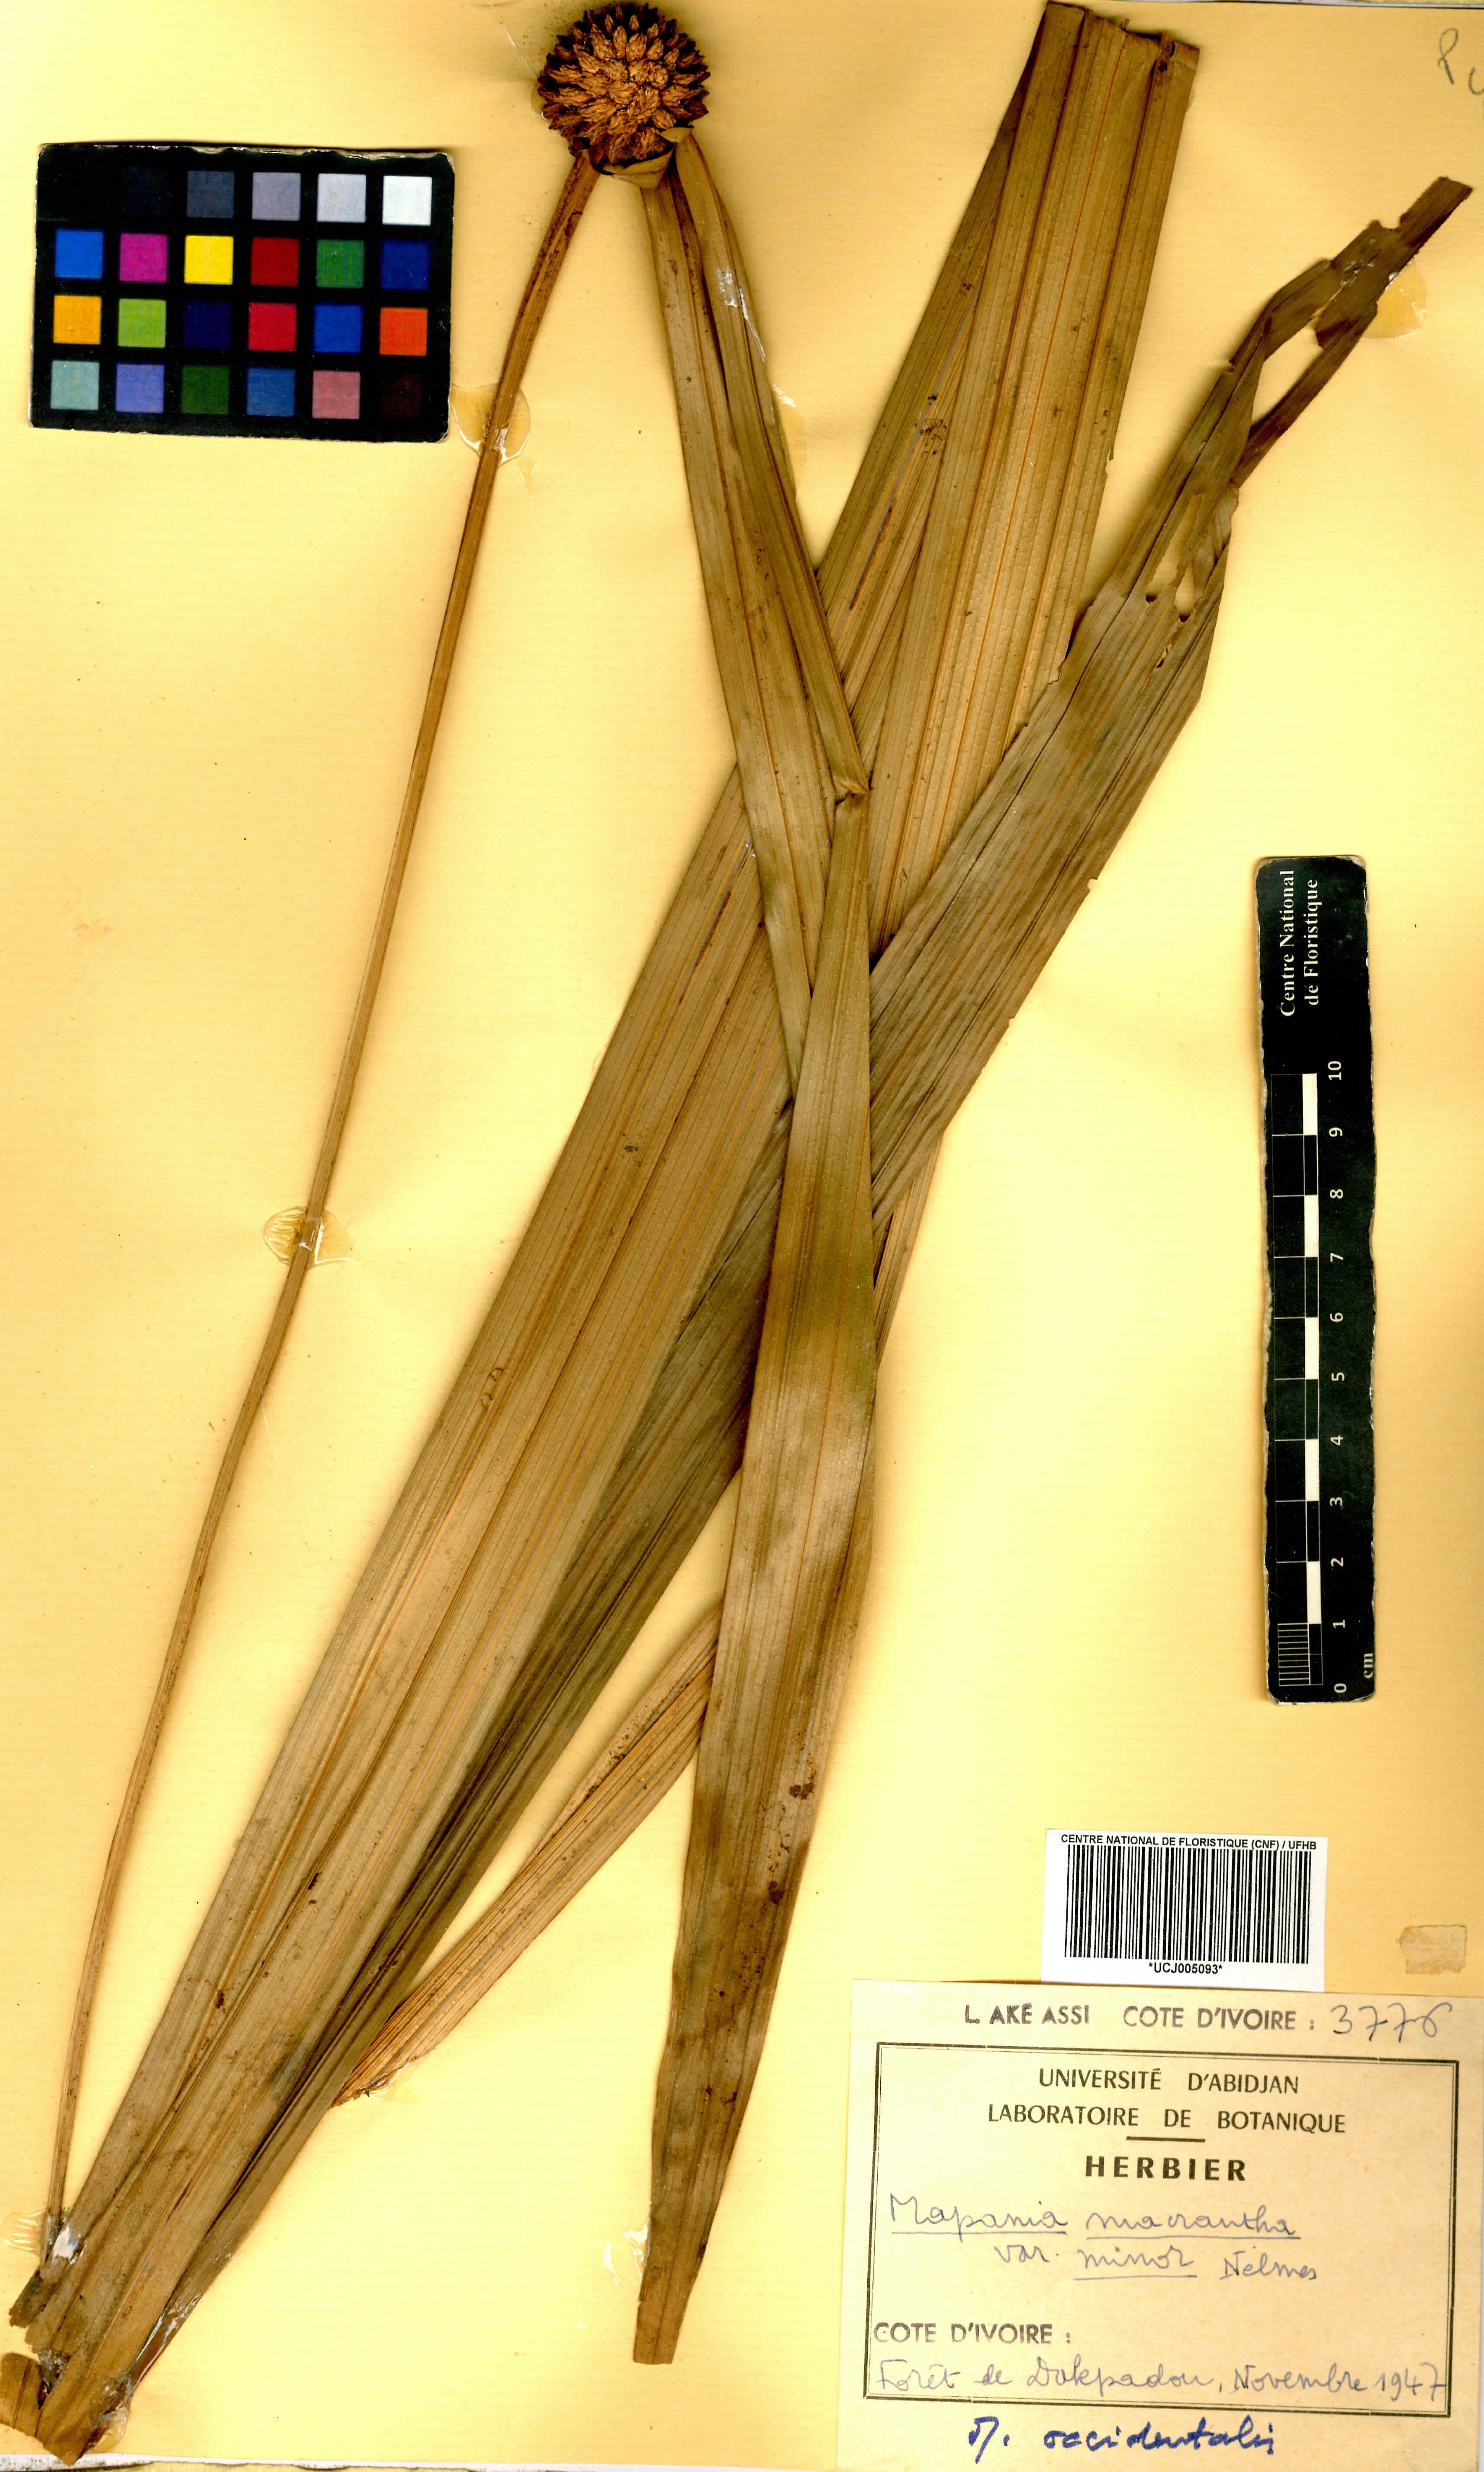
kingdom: Plantae
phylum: Tracheophyta
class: Liliopsida
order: Poales
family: Cyperaceae
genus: Mapania
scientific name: Mapania minor
